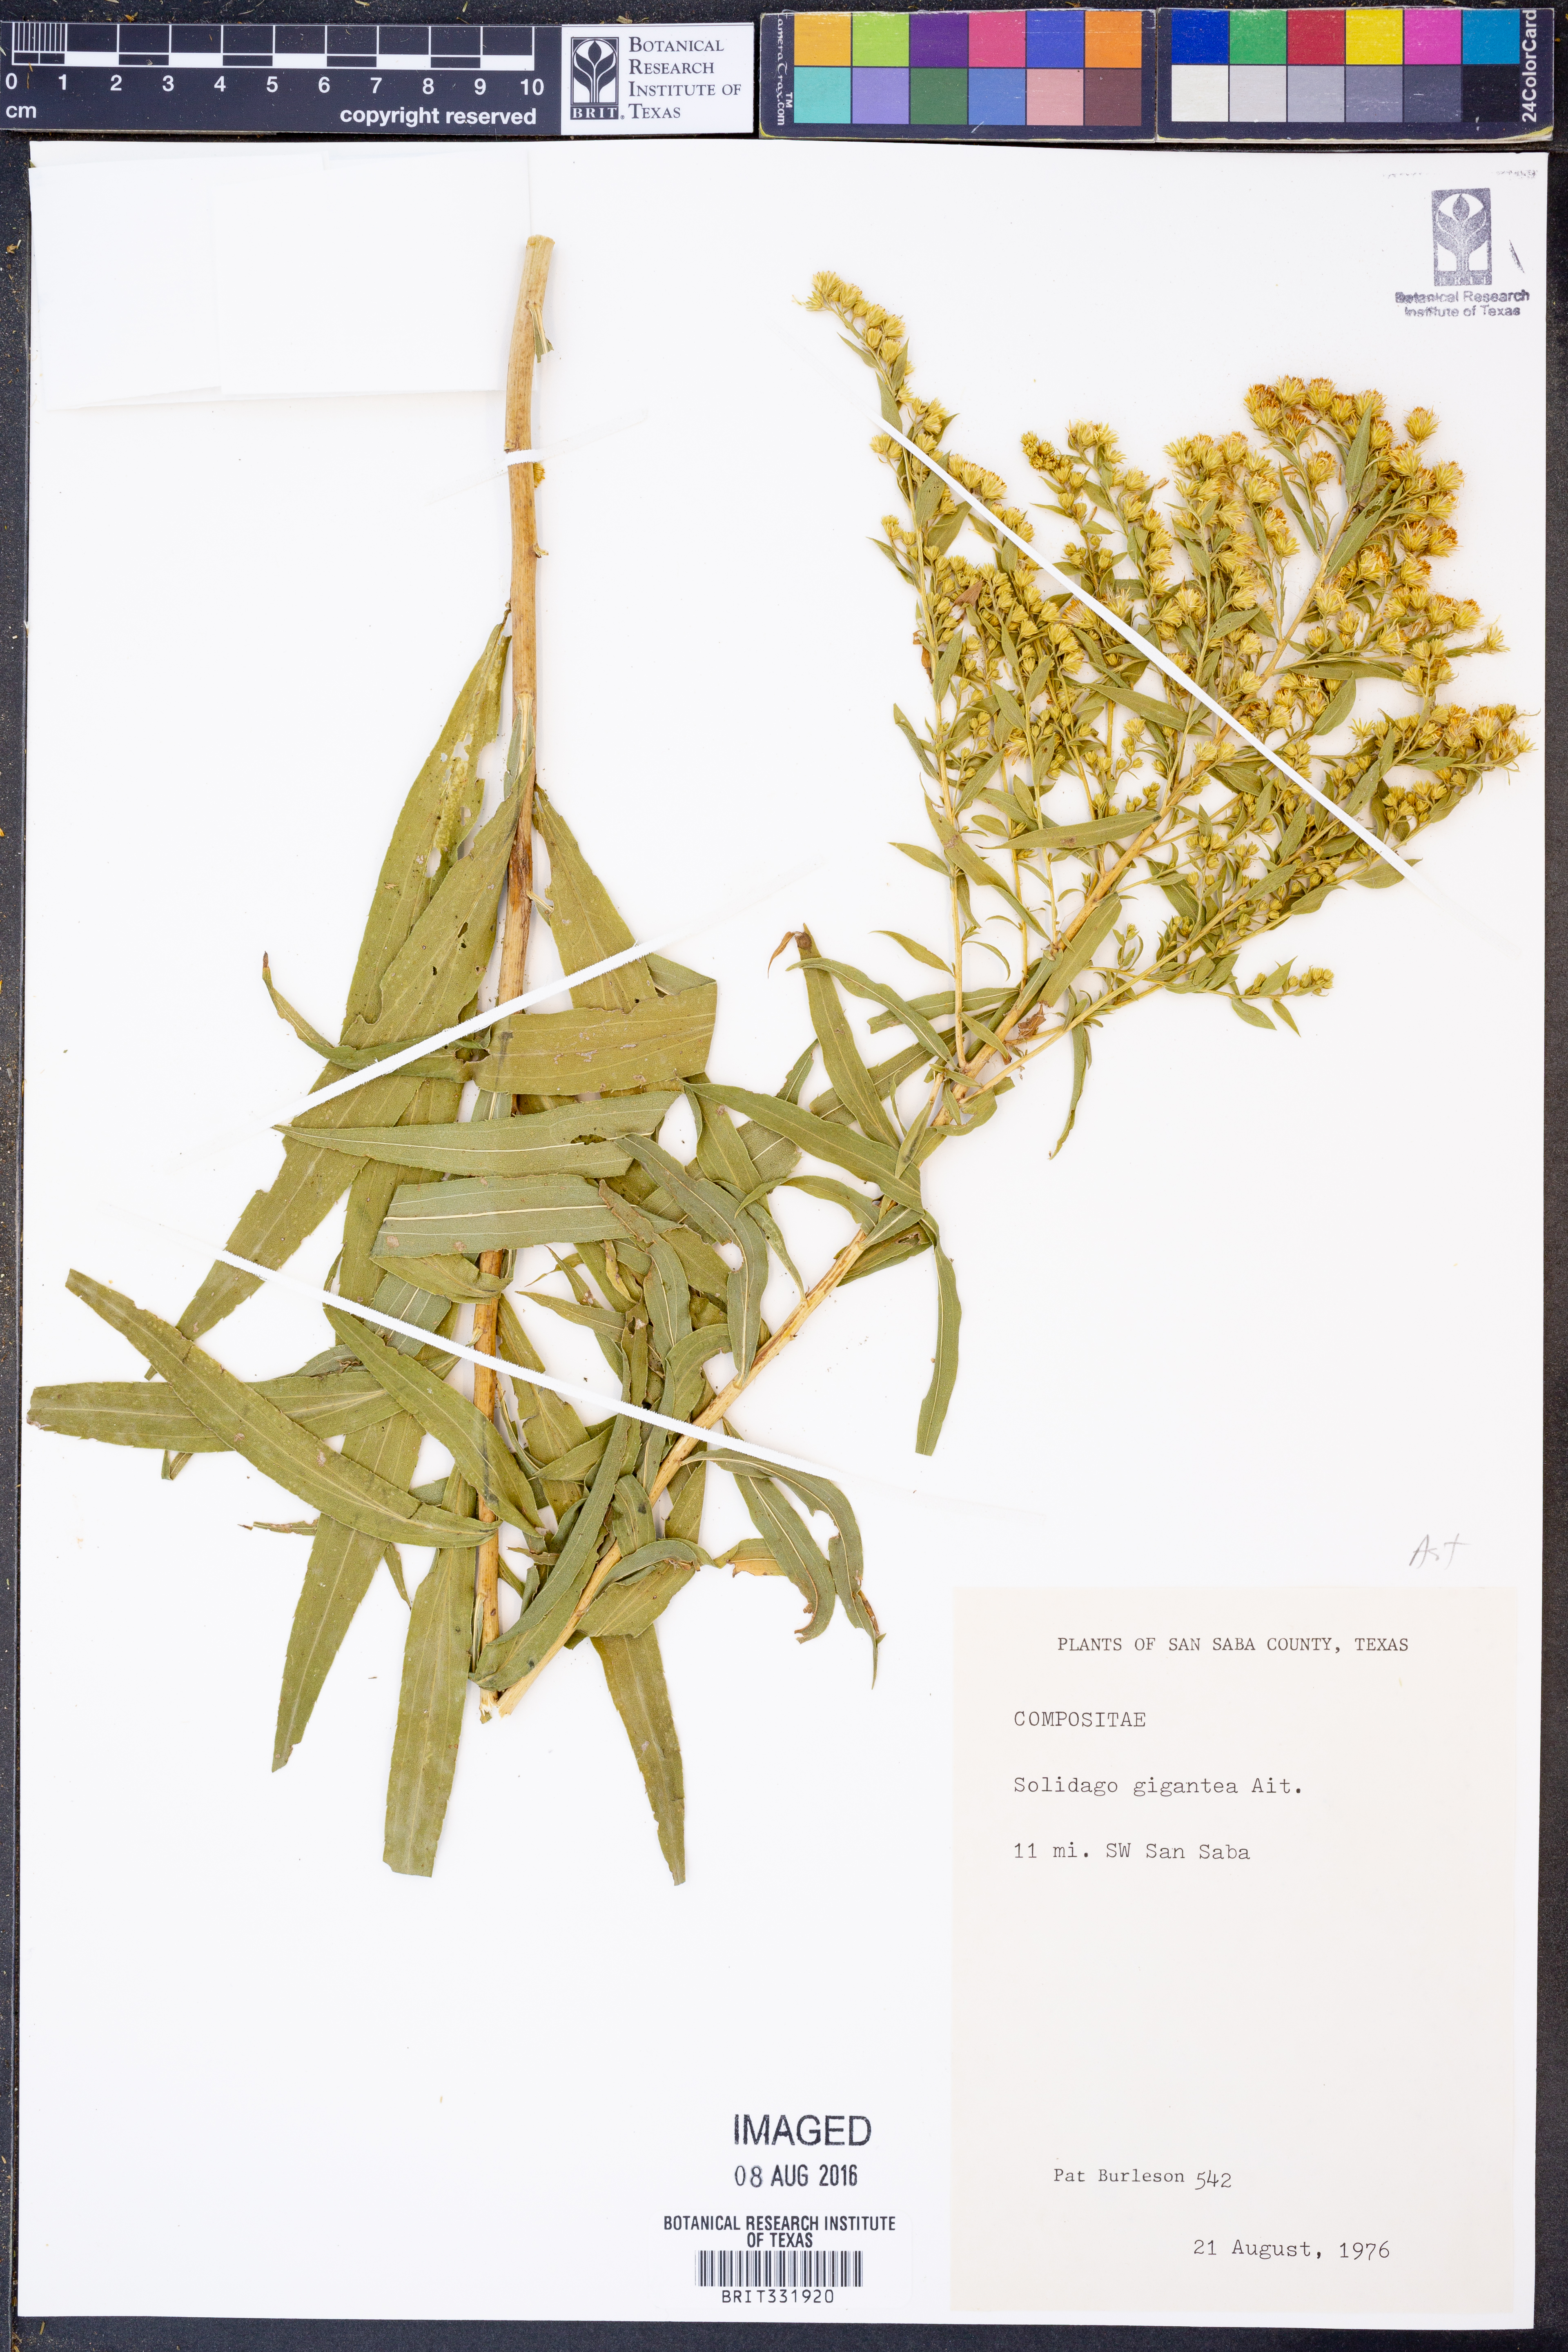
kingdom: Plantae
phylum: Tracheophyta
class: Magnoliopsida
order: Asterales
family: Asteraceae
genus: Solidago
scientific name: Solidago gigantea
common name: Giant goldenrod
